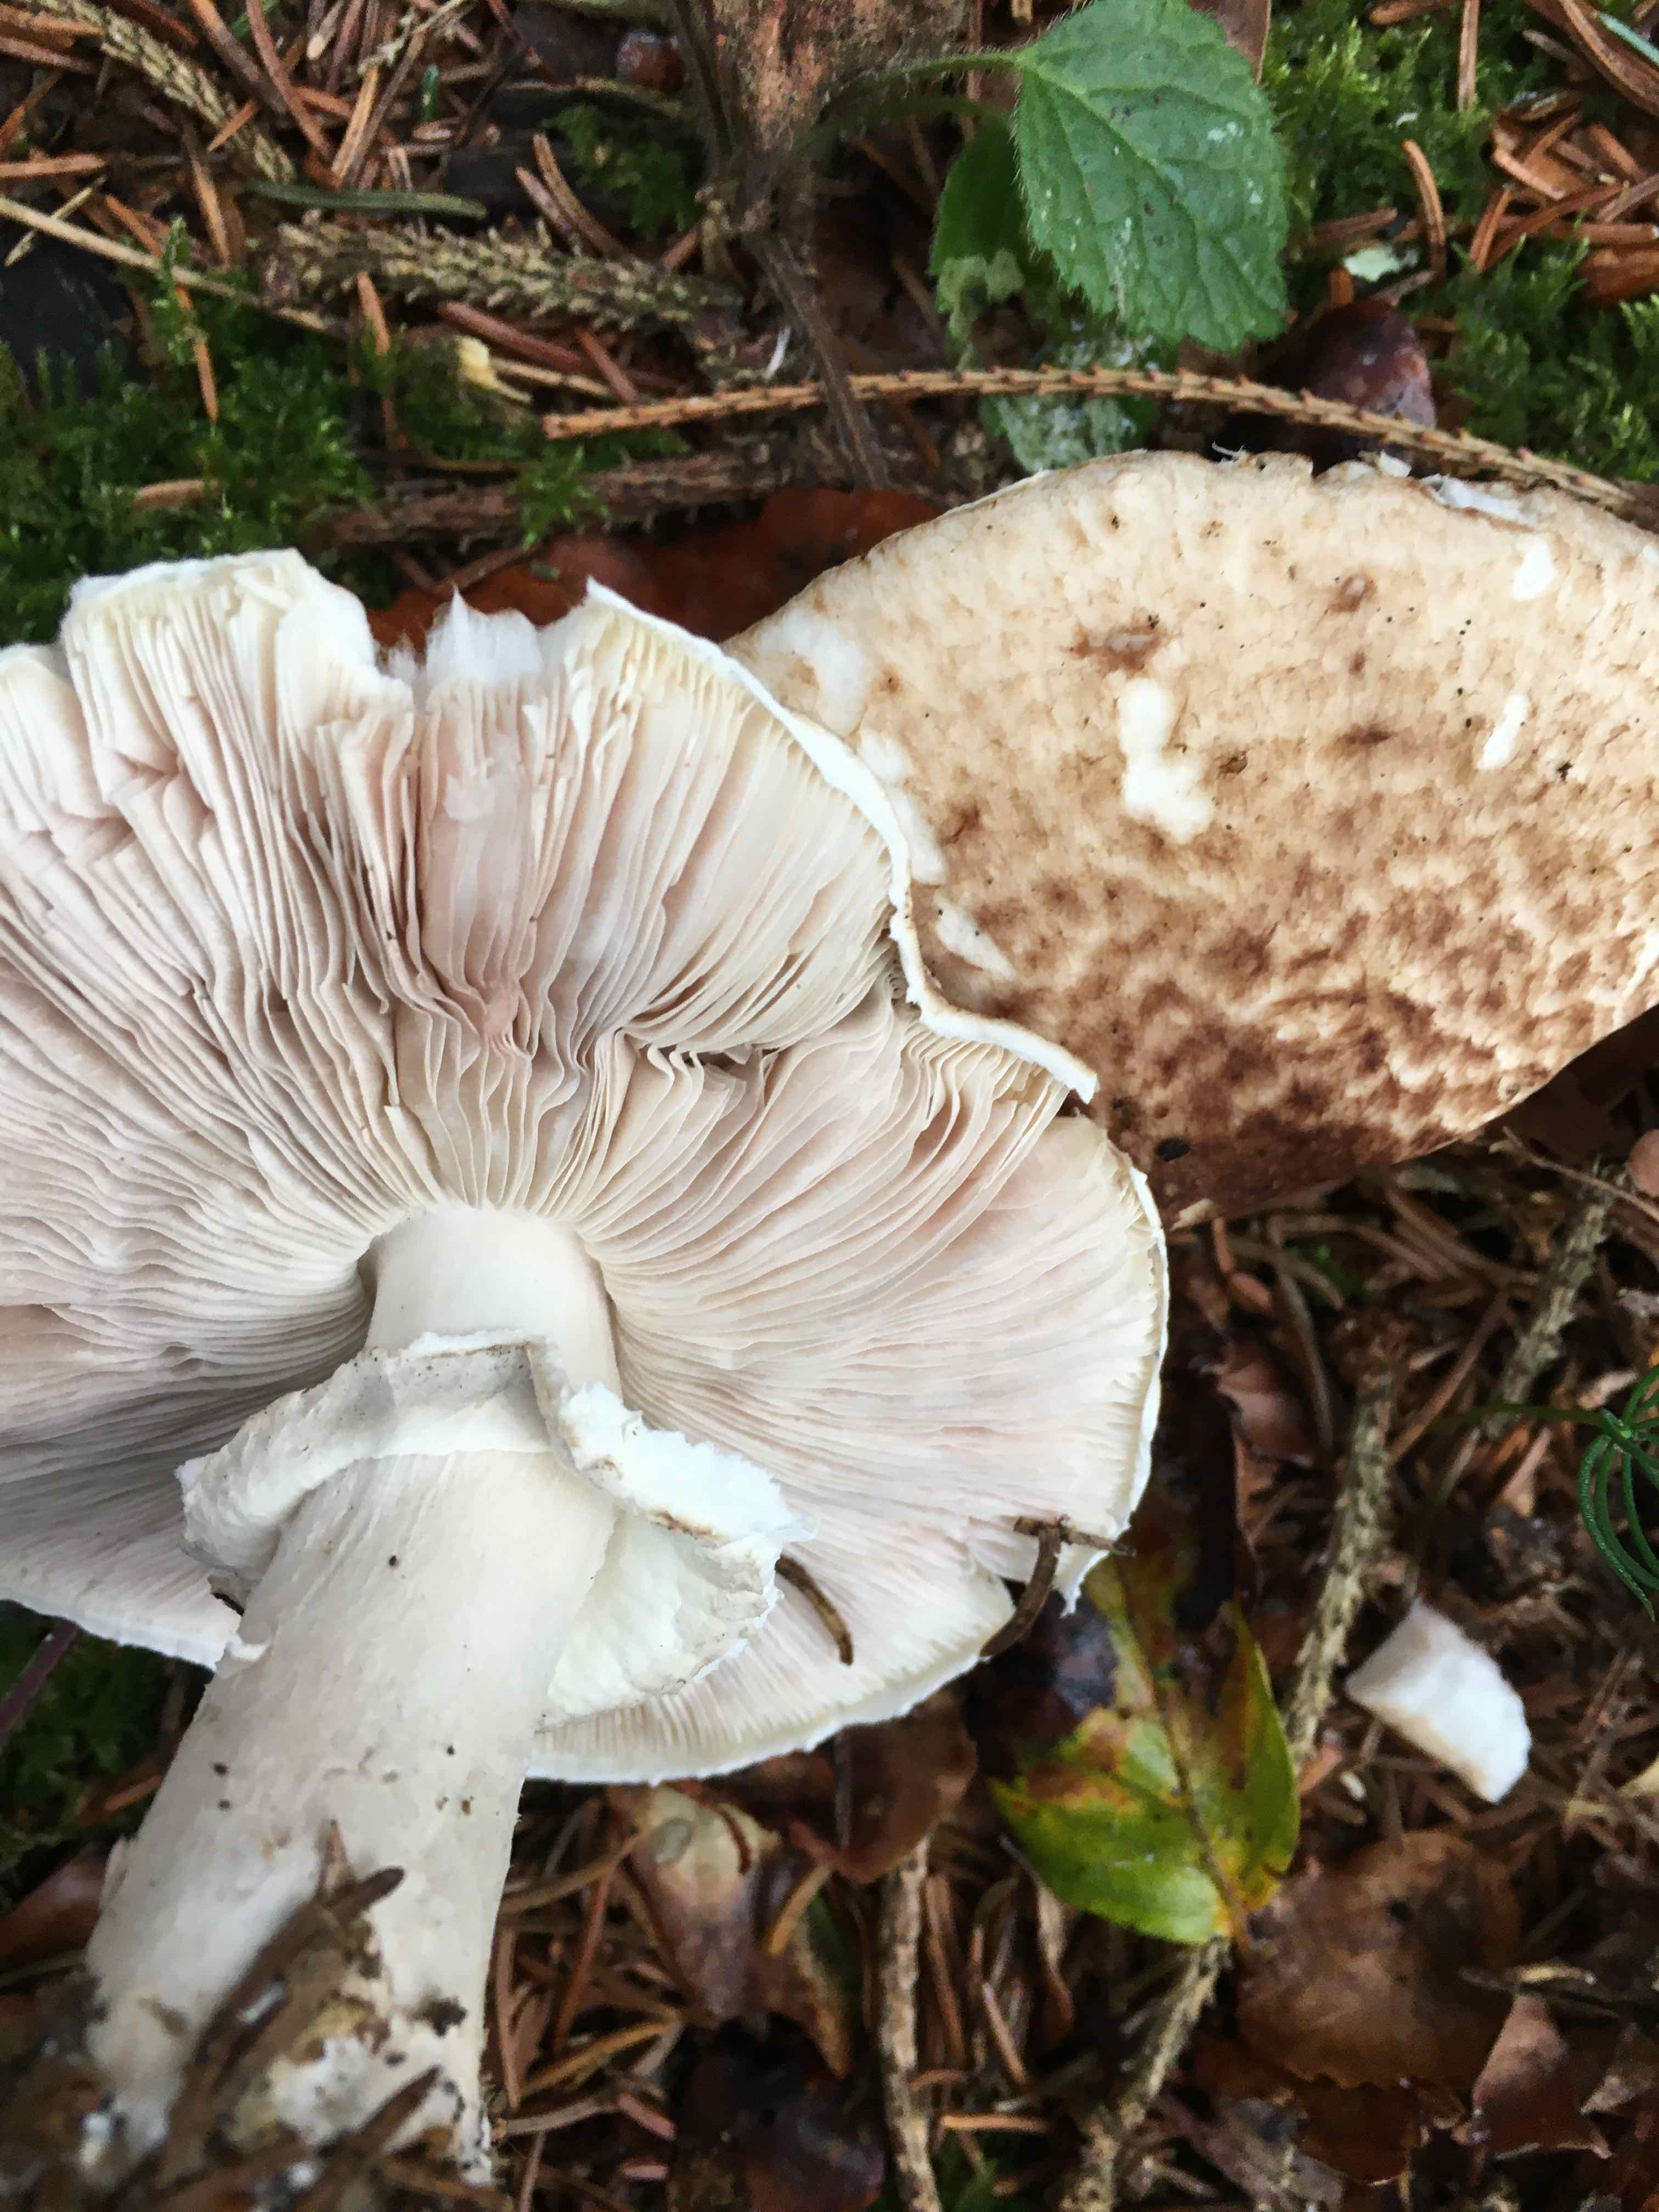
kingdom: Fungi
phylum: Basidiomycota
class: Agaricomycetes
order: Agaricales
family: Agaricaceae
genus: Agaricus
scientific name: Agaricus impudicus
